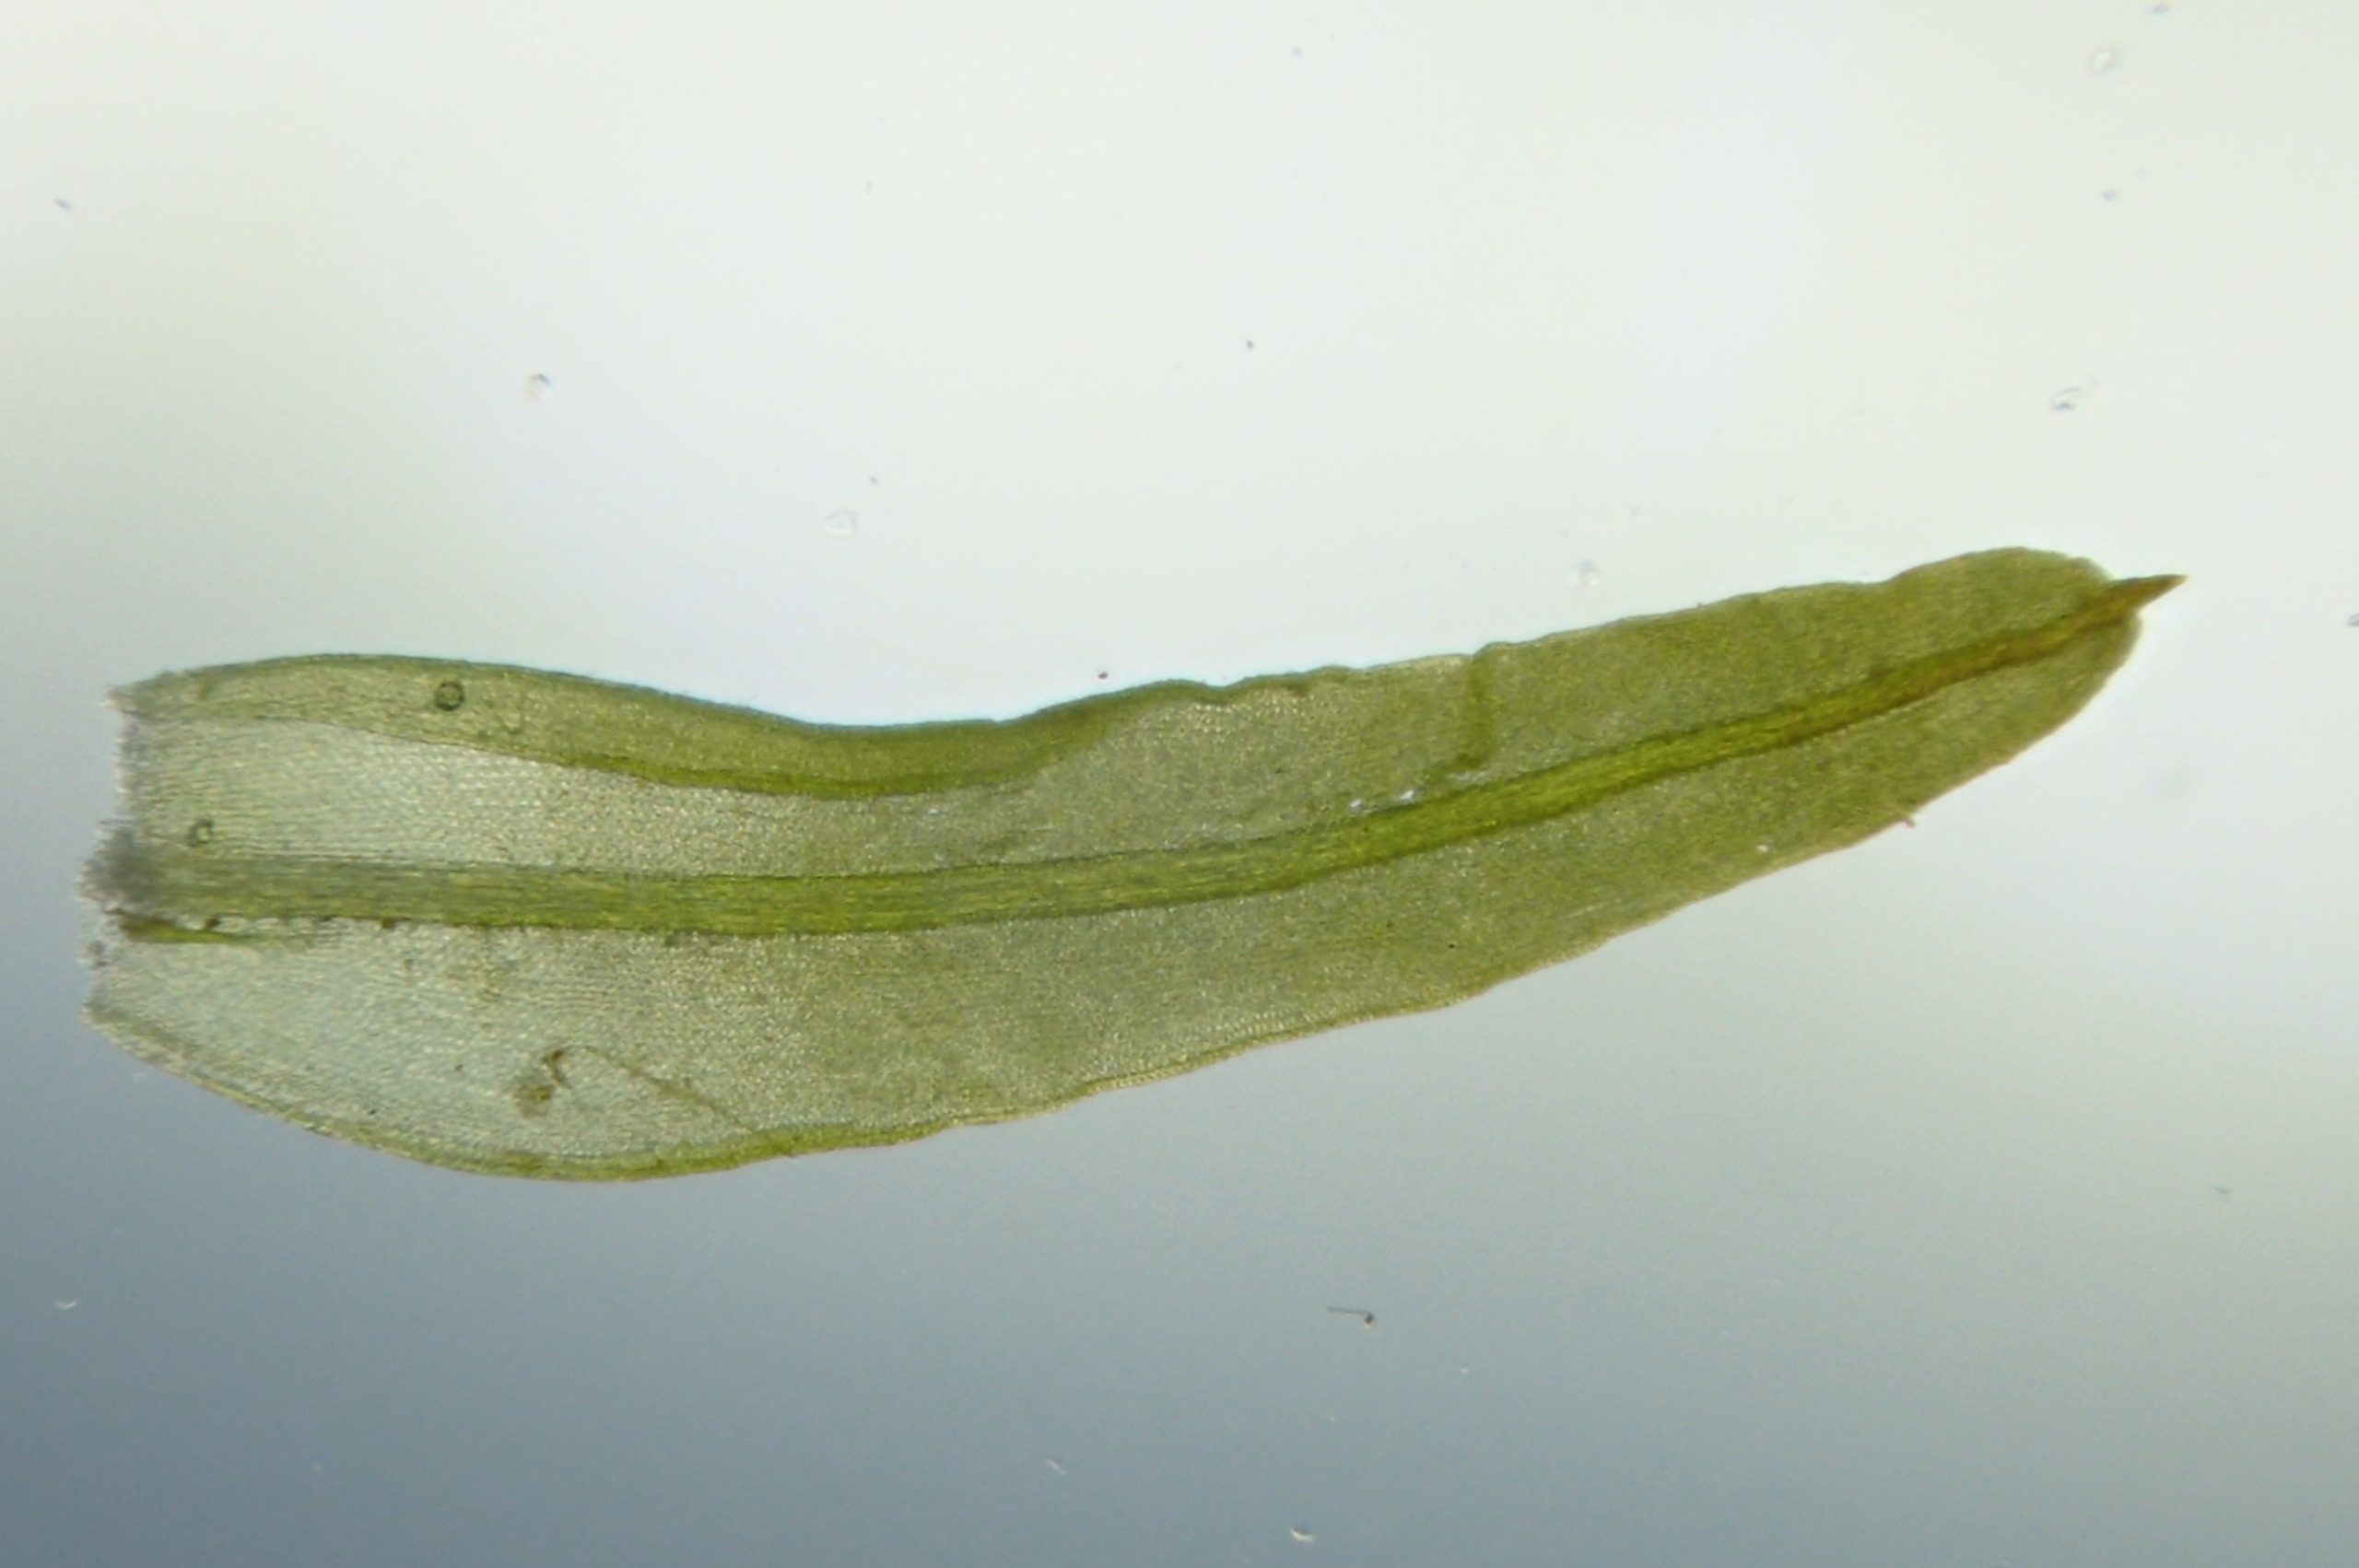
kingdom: Plantae
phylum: Bryophyta
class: Bryopsida
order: Pottiales
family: Pottiaceae
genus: Barbula
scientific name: Barbula unguiculata
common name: Almindelig skægtand
